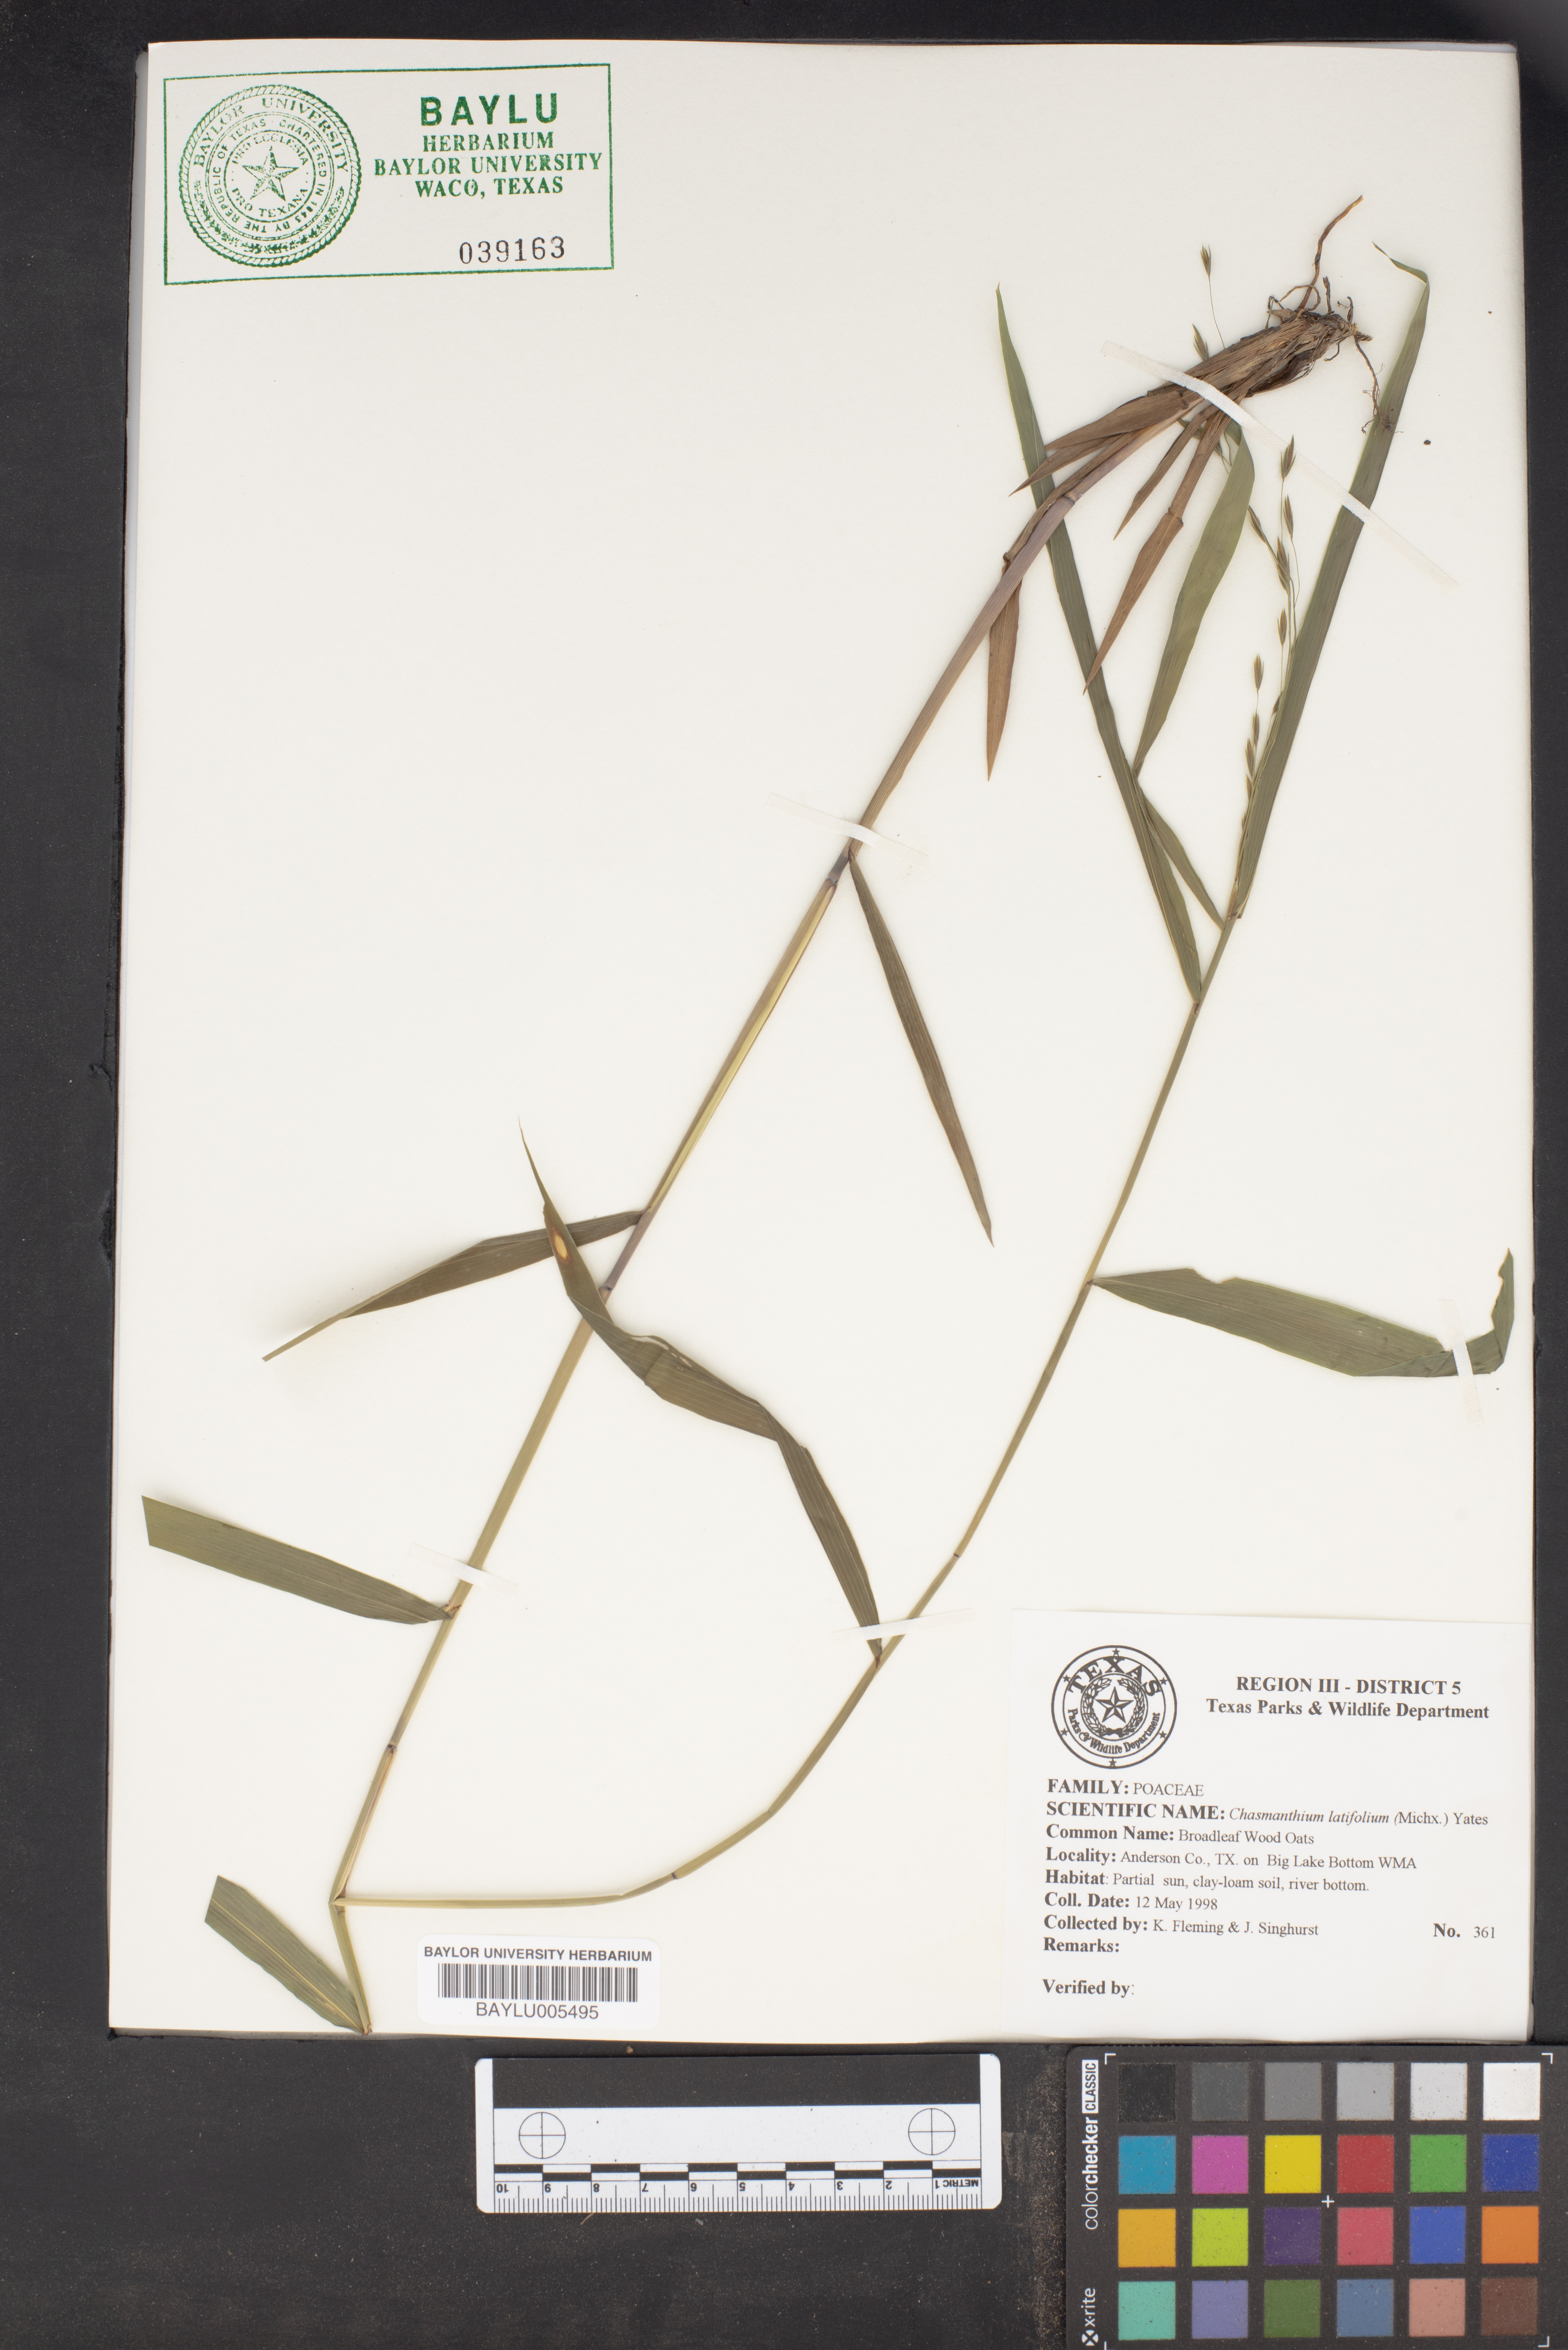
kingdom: Plantae
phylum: Tracheophyta
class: Liliopsida
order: Poales
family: Poaceae
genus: Chasmanthium
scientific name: Chasmanthium latifolium
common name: Broad-leaved chasmanthium
